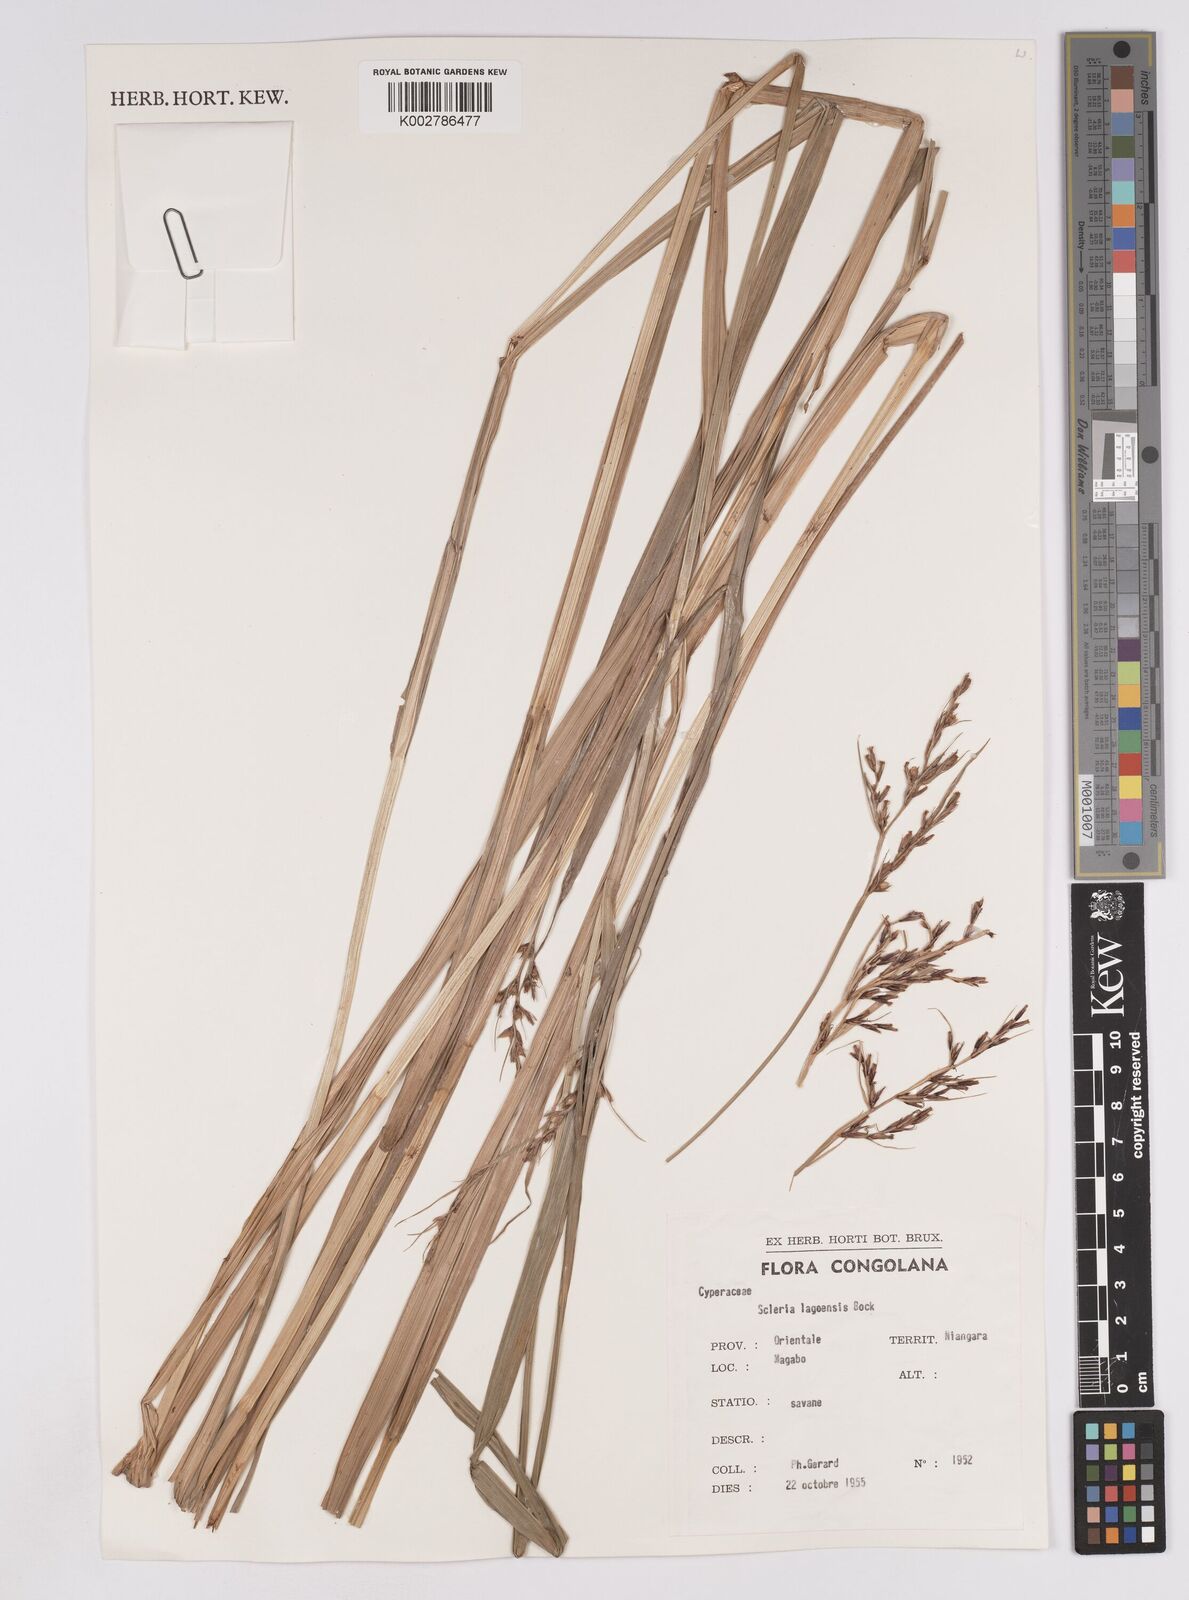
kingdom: Plantae
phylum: Tracheophyta
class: Liliopsida
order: Poales
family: Cyperaceae
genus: Scleria
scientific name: Scleria lagoensis
